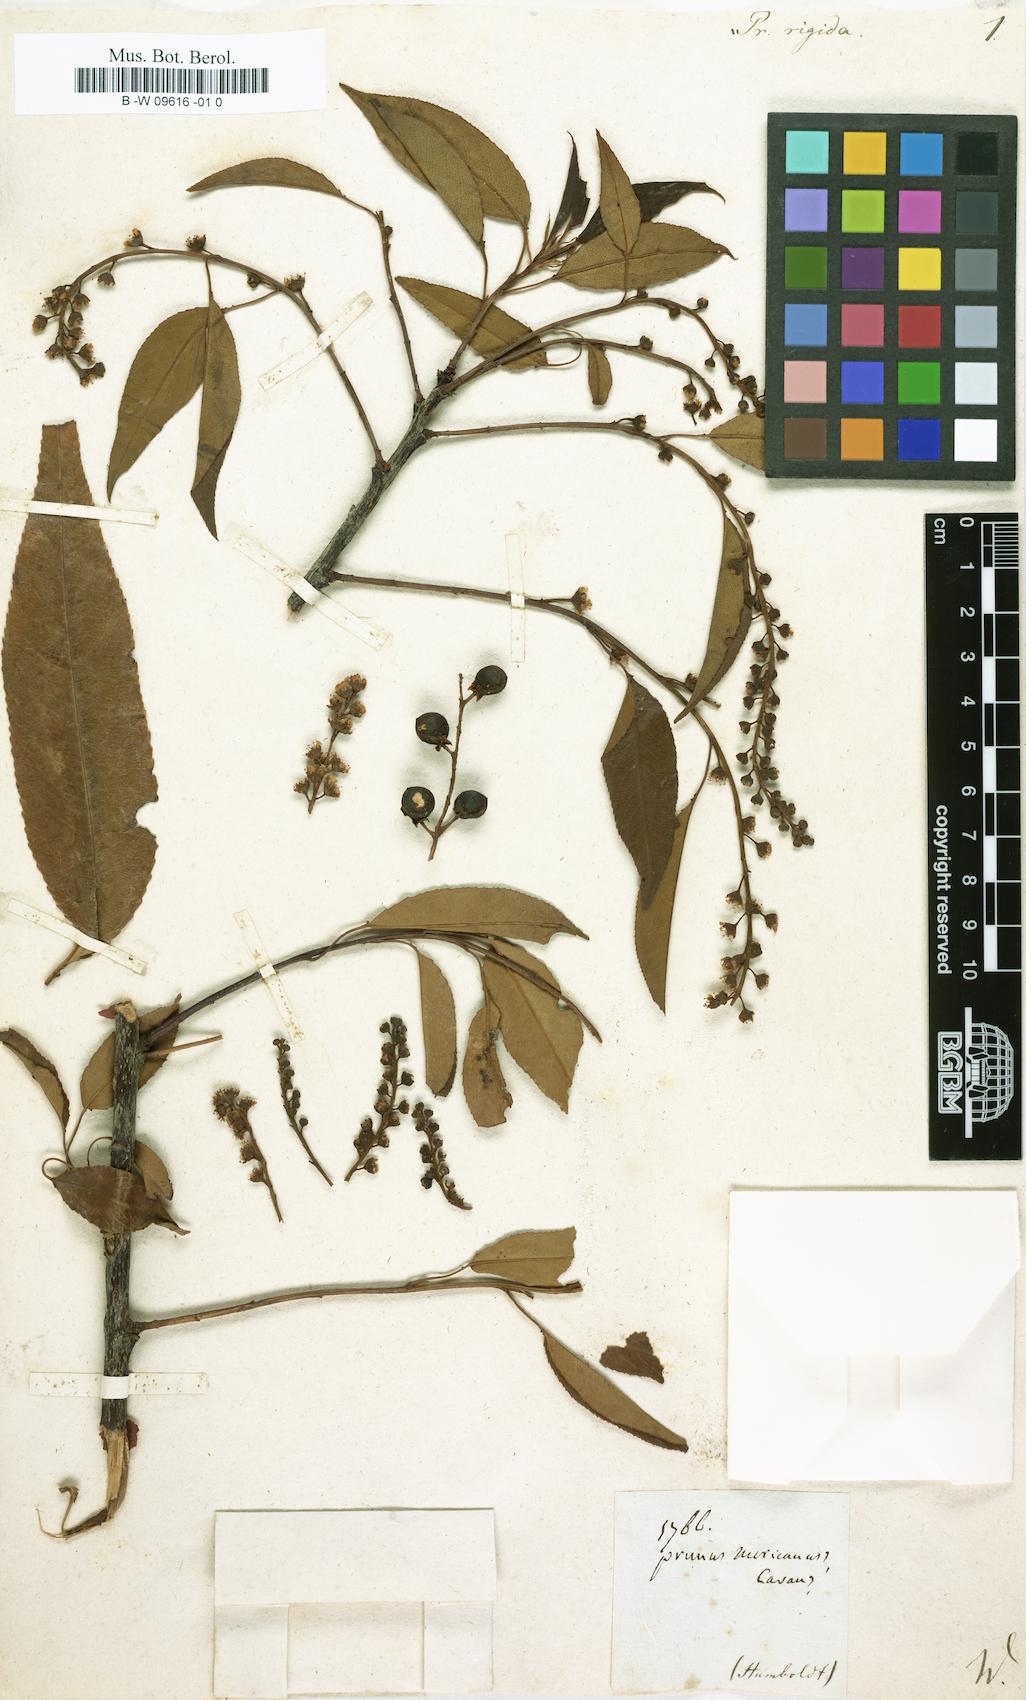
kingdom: Plantae
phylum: Tracheophyta
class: Magnoliopsida
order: Rosales
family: Rosaceae
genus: Prunus
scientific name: Prunus rigida
